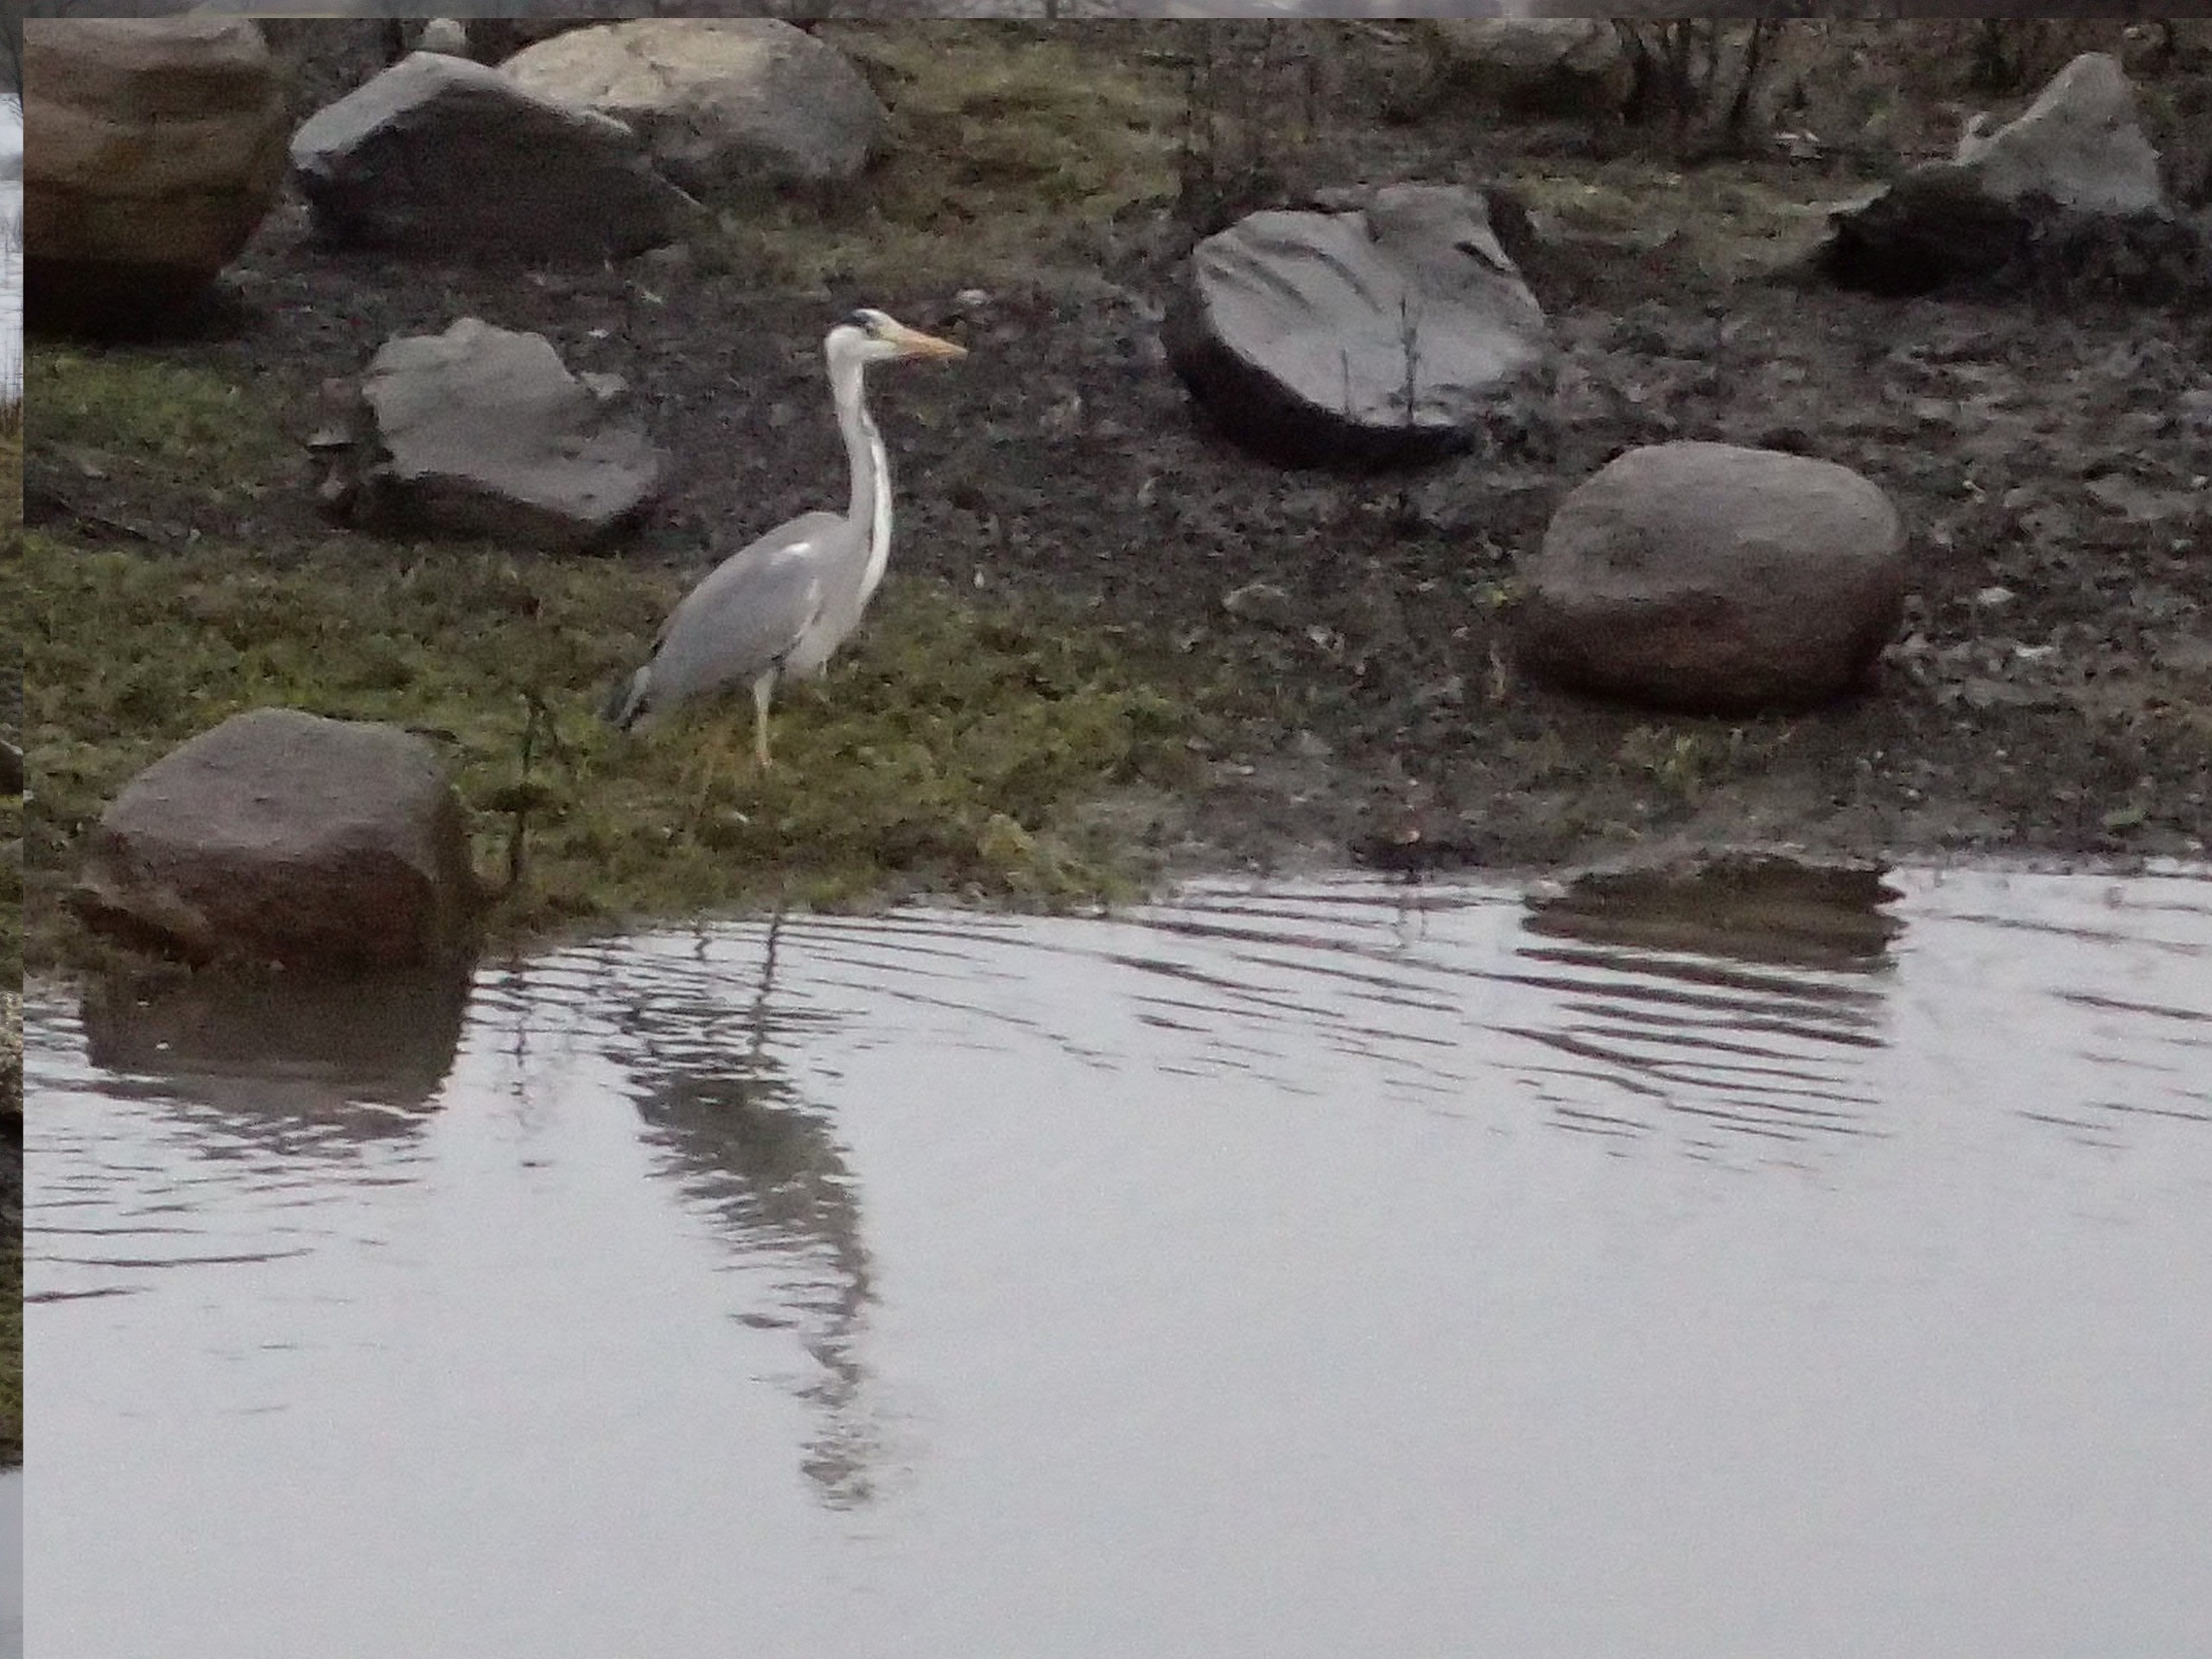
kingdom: Animalia
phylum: Chordata
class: Aves
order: Pelecaniformes
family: Ardeidae
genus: Ardea
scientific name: Ardea cinerea
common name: Fiskehejre
